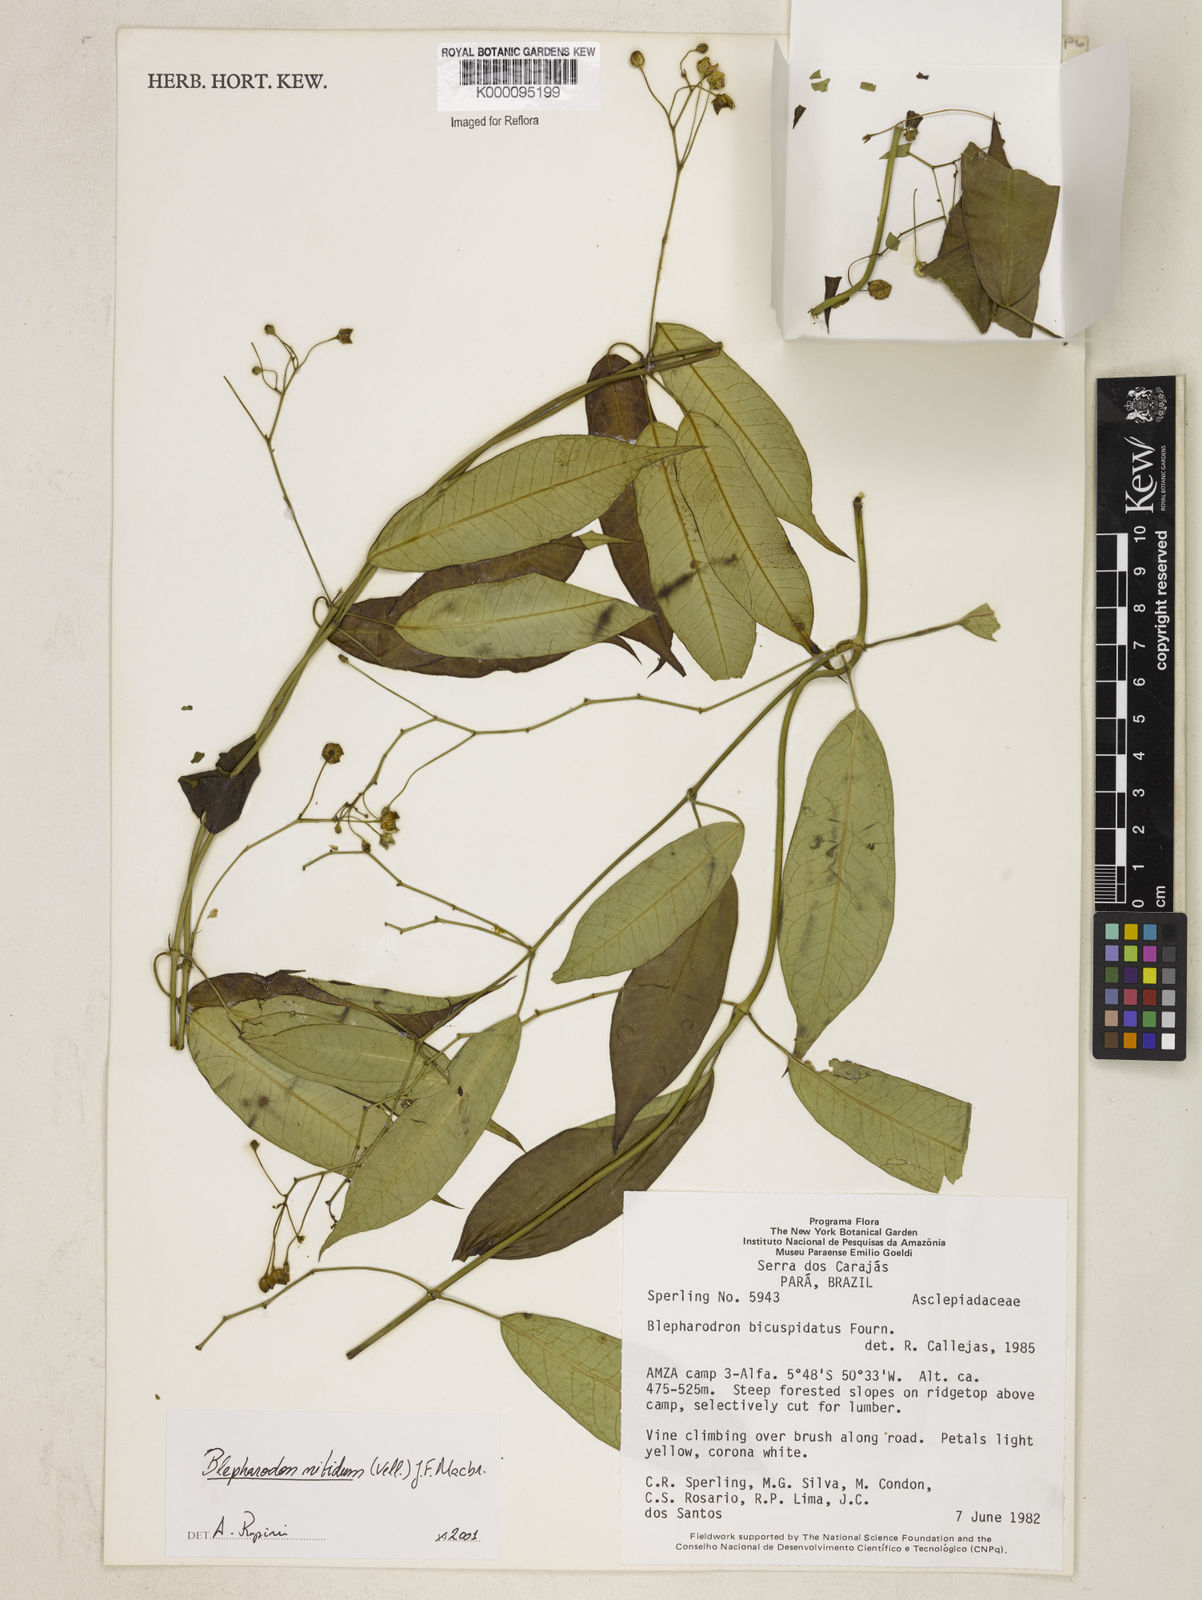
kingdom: Plantae
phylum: Tracheophyta
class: Magnoliopsida
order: Gentianales
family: Apocynaceae
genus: Blepharodon
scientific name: Blepharodon pictum
